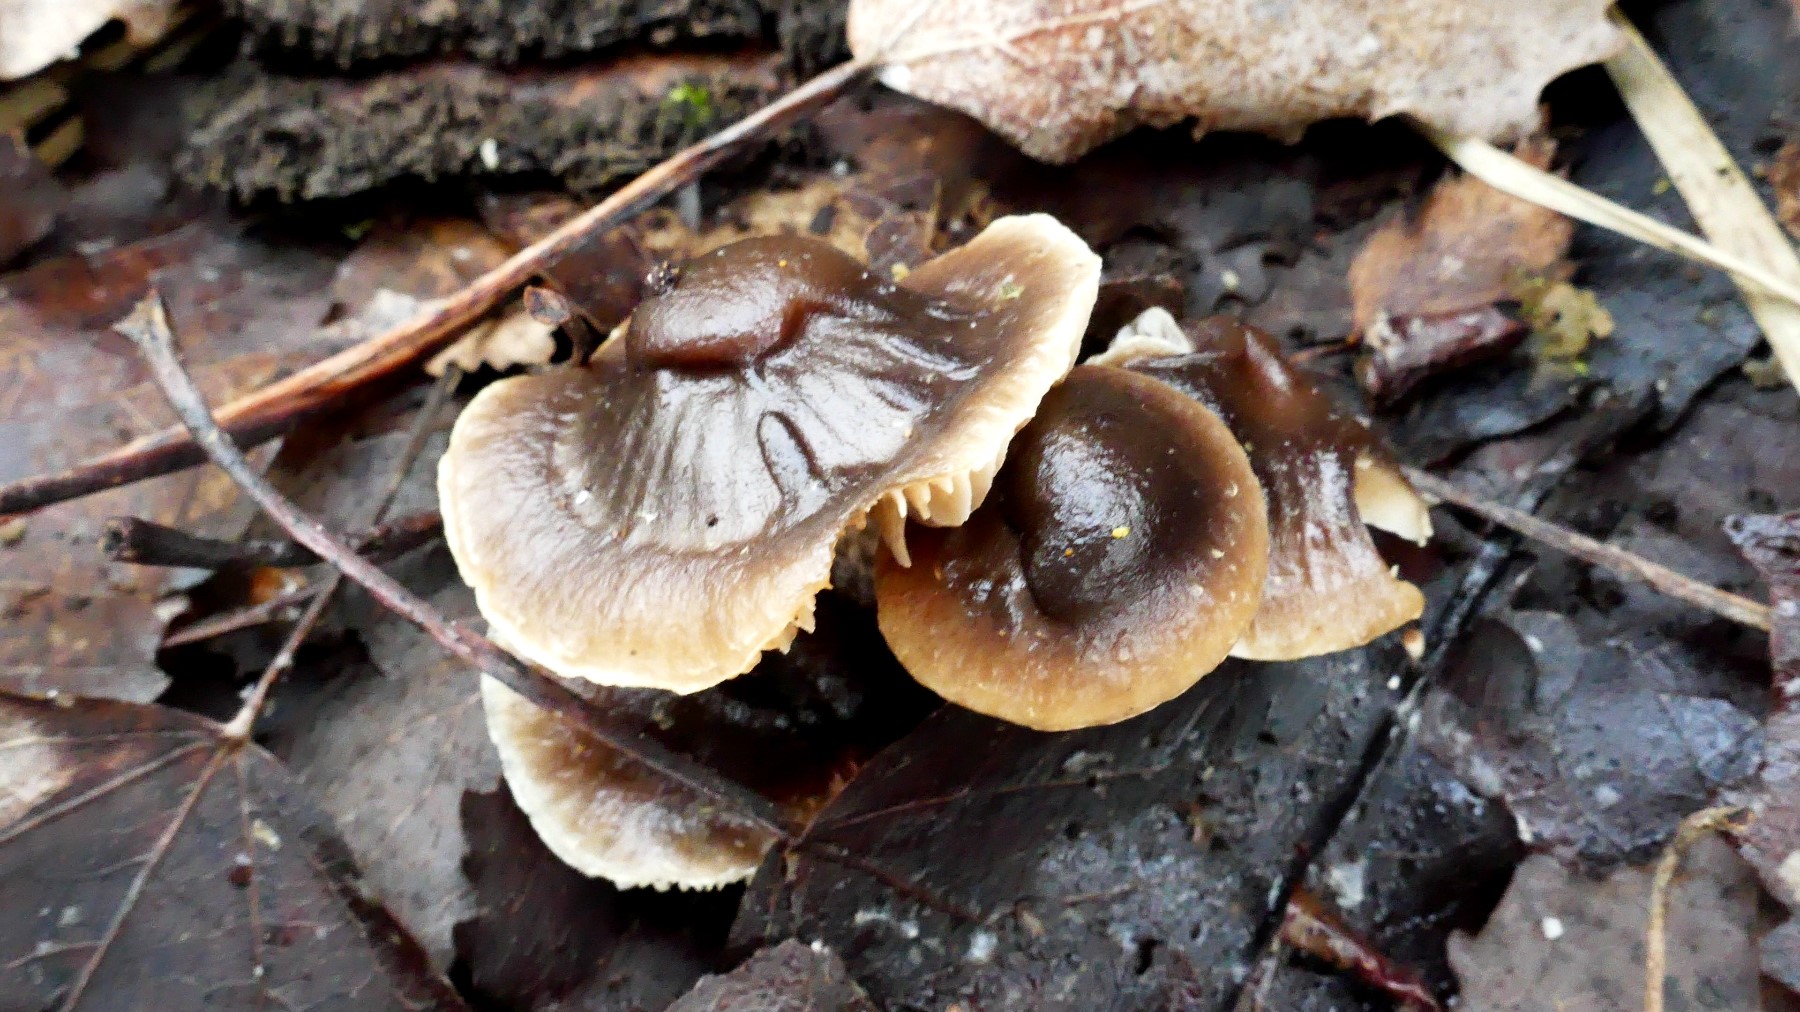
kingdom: Fungi
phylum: Basidiomycota
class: Agaricomycetes
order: Agaricales
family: Strophariaceae
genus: Meottomyces
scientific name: Meottomyces dissimulans
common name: smudsigbrun vinterskælhat
